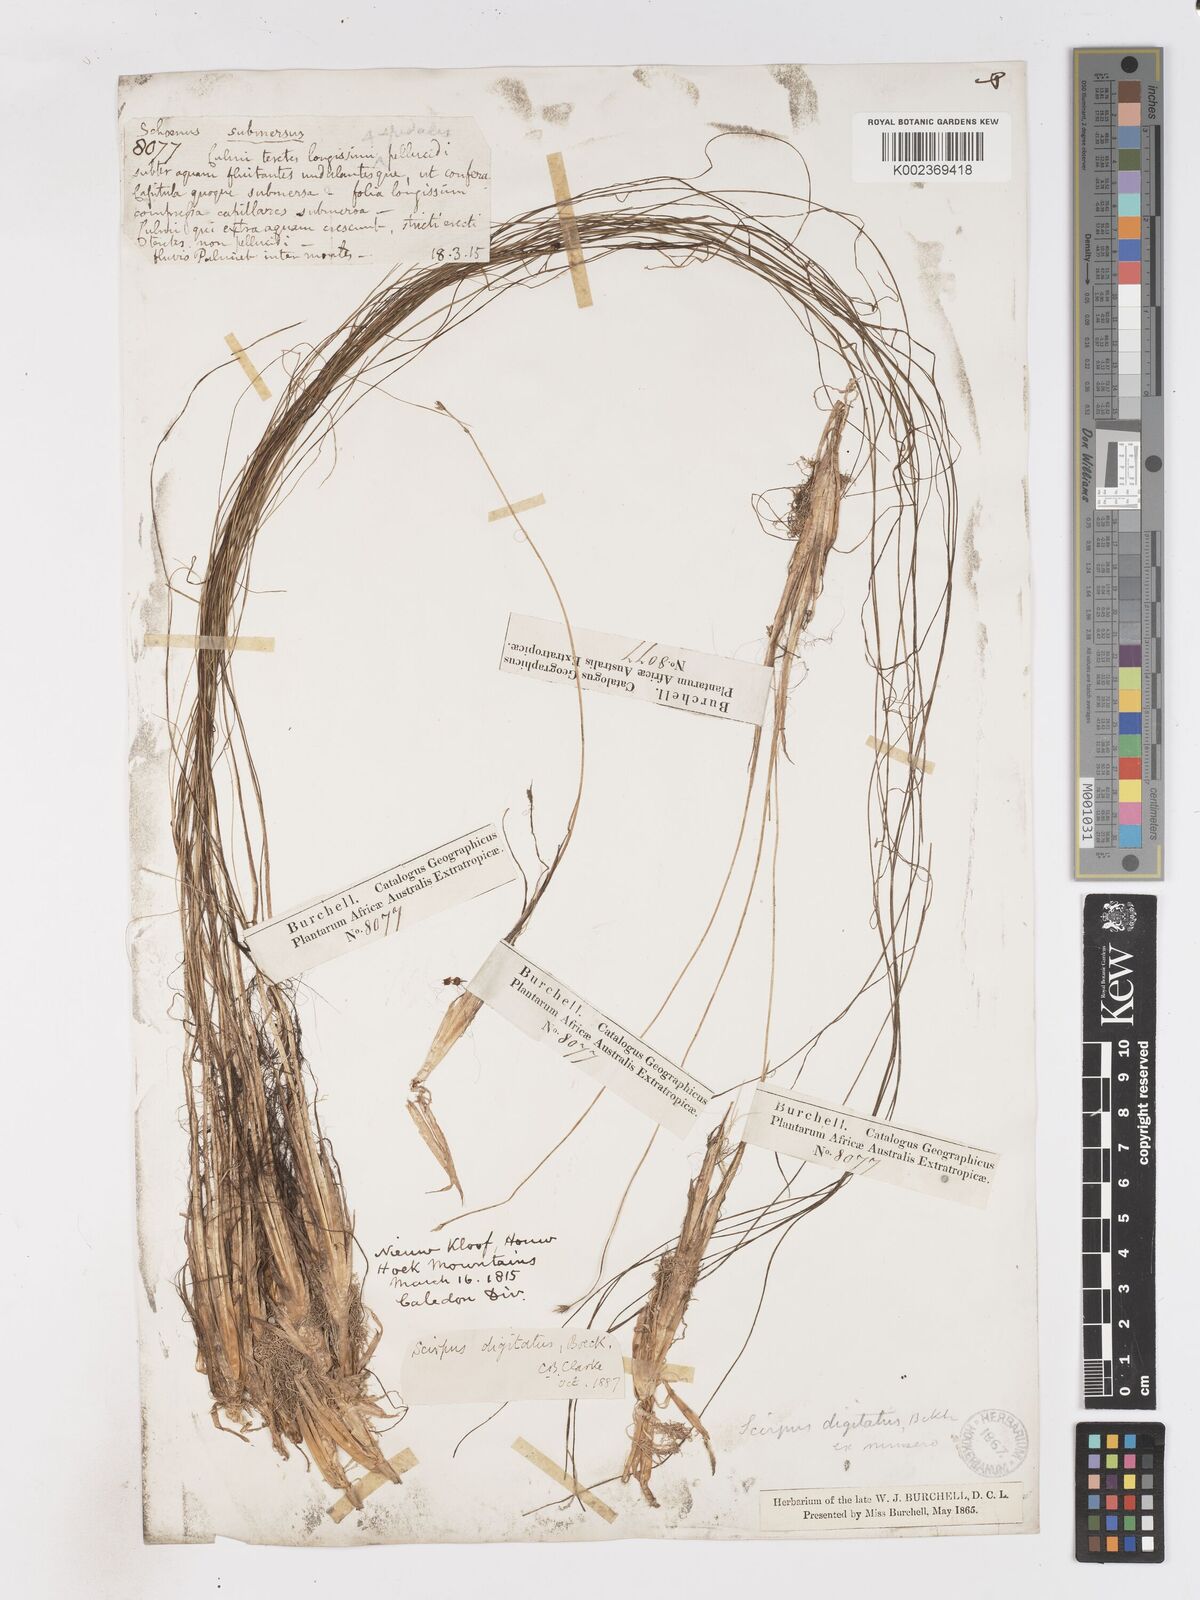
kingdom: Plantae
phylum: Tracheophyta
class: Liliopsida
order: Poales
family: Cyperaceae
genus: Isolepis
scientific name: Isolepis digitata
